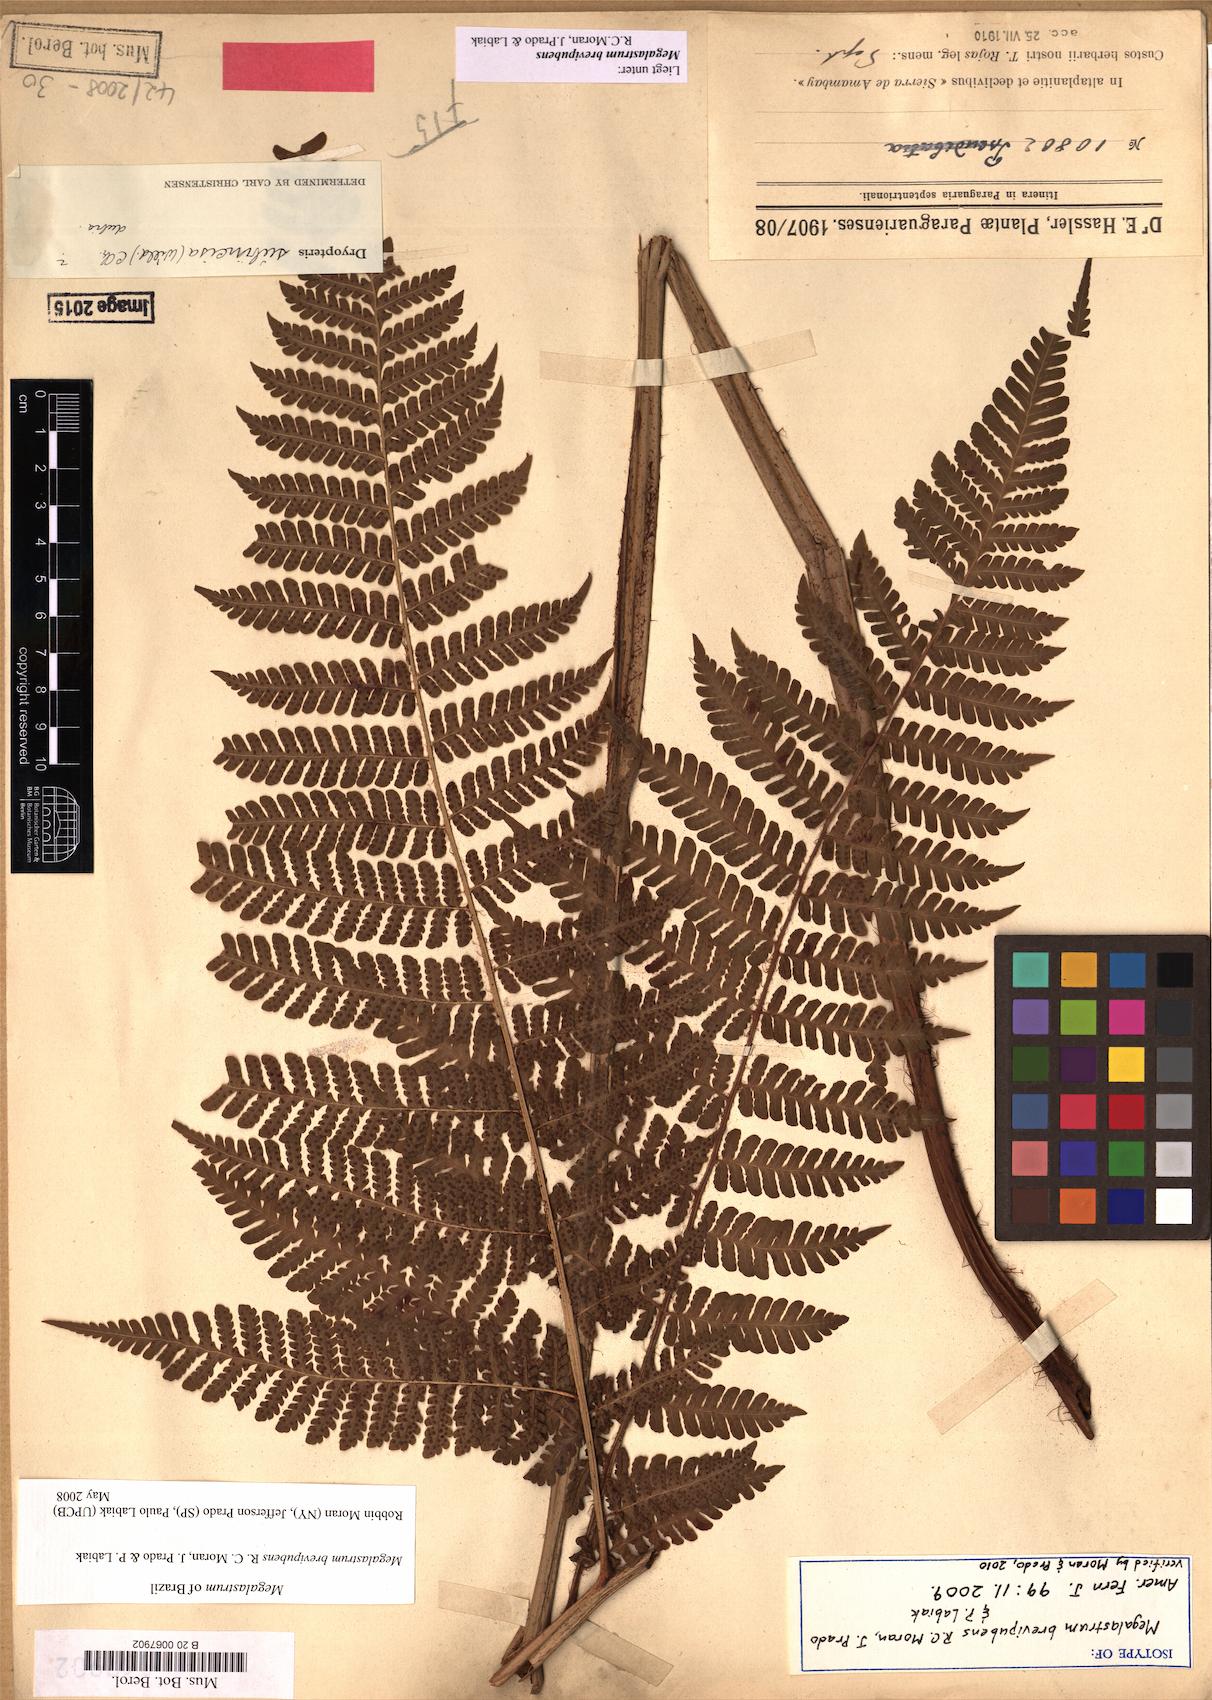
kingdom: Plantae
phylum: Tracheophyta
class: Polypodiopsida
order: Polypodiales
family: Dryopteridaceae
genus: Megalastrum
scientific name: Megalastrum brevipubens
